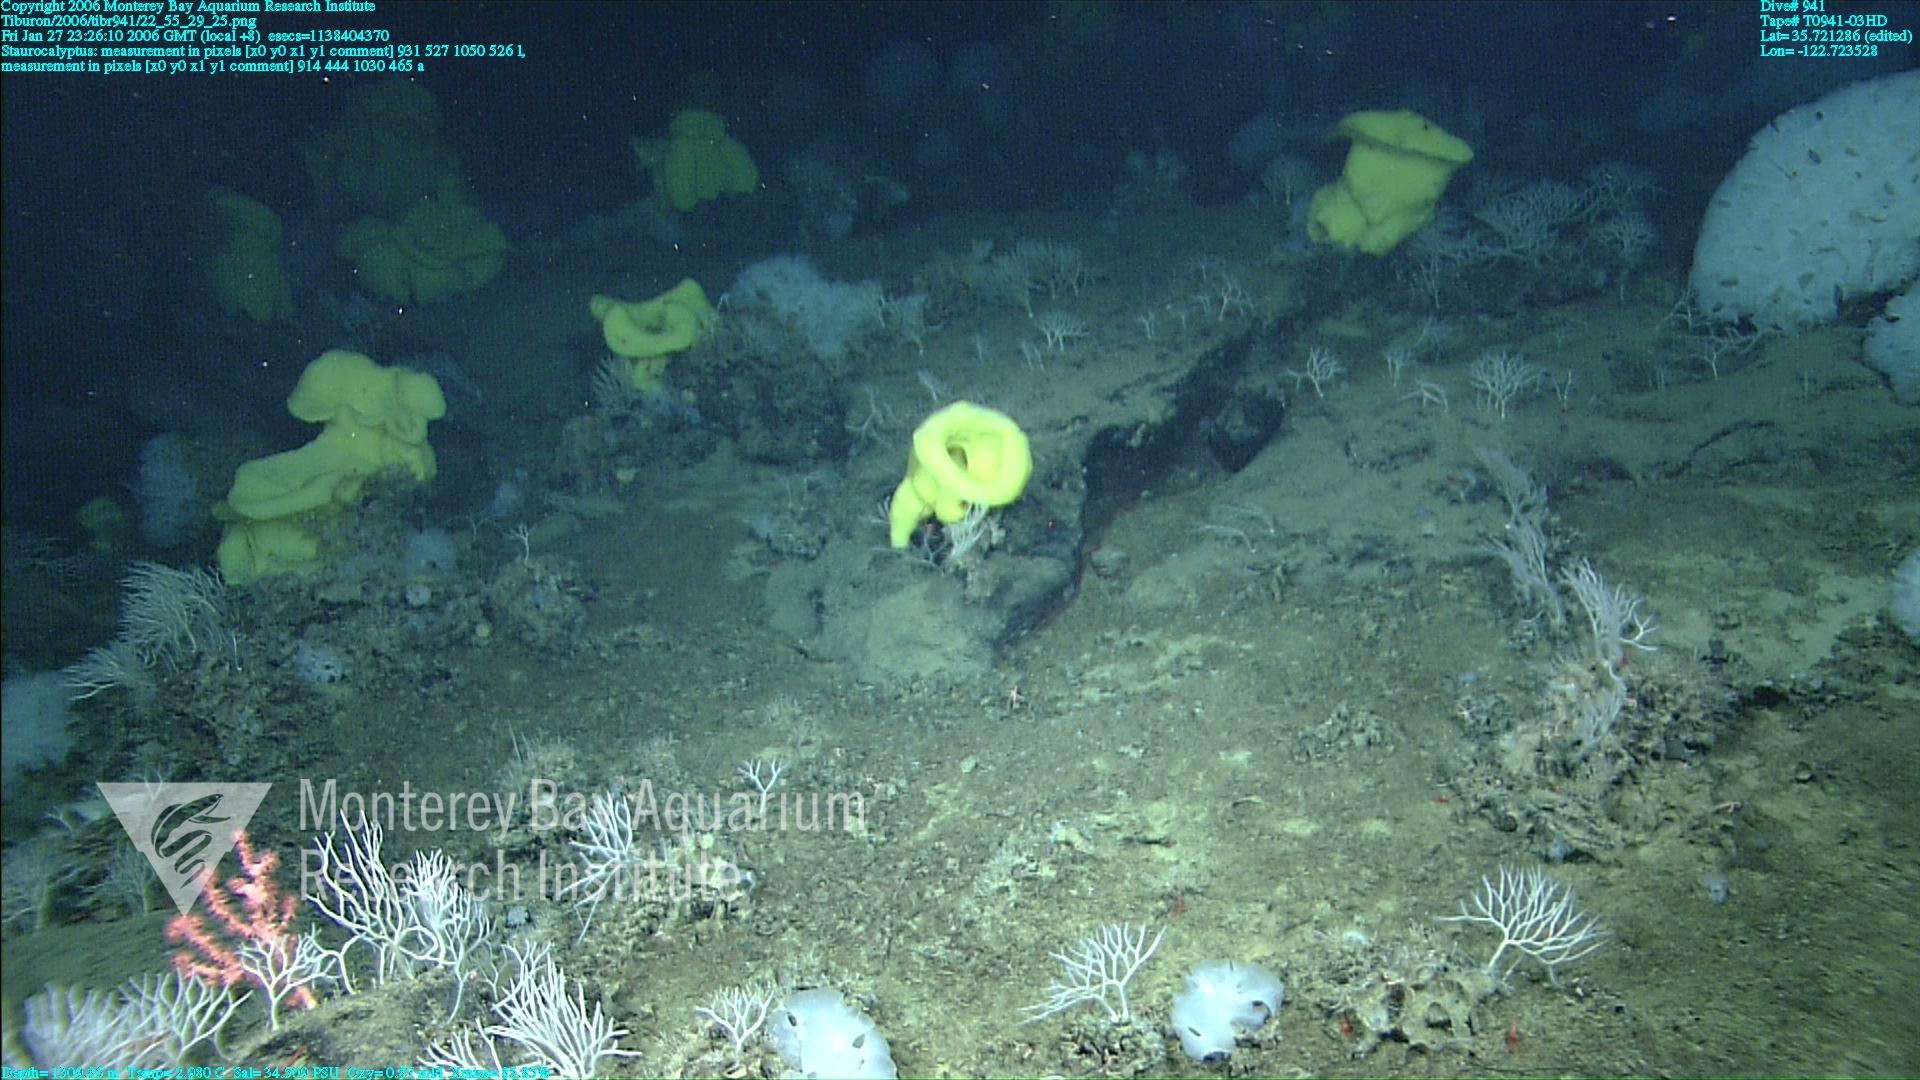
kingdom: Animalia
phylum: Porifera
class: Hexactinellida
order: Lyssacinosida
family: Rossellidae
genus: Staurocalyptus
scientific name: Staurocalyptus
